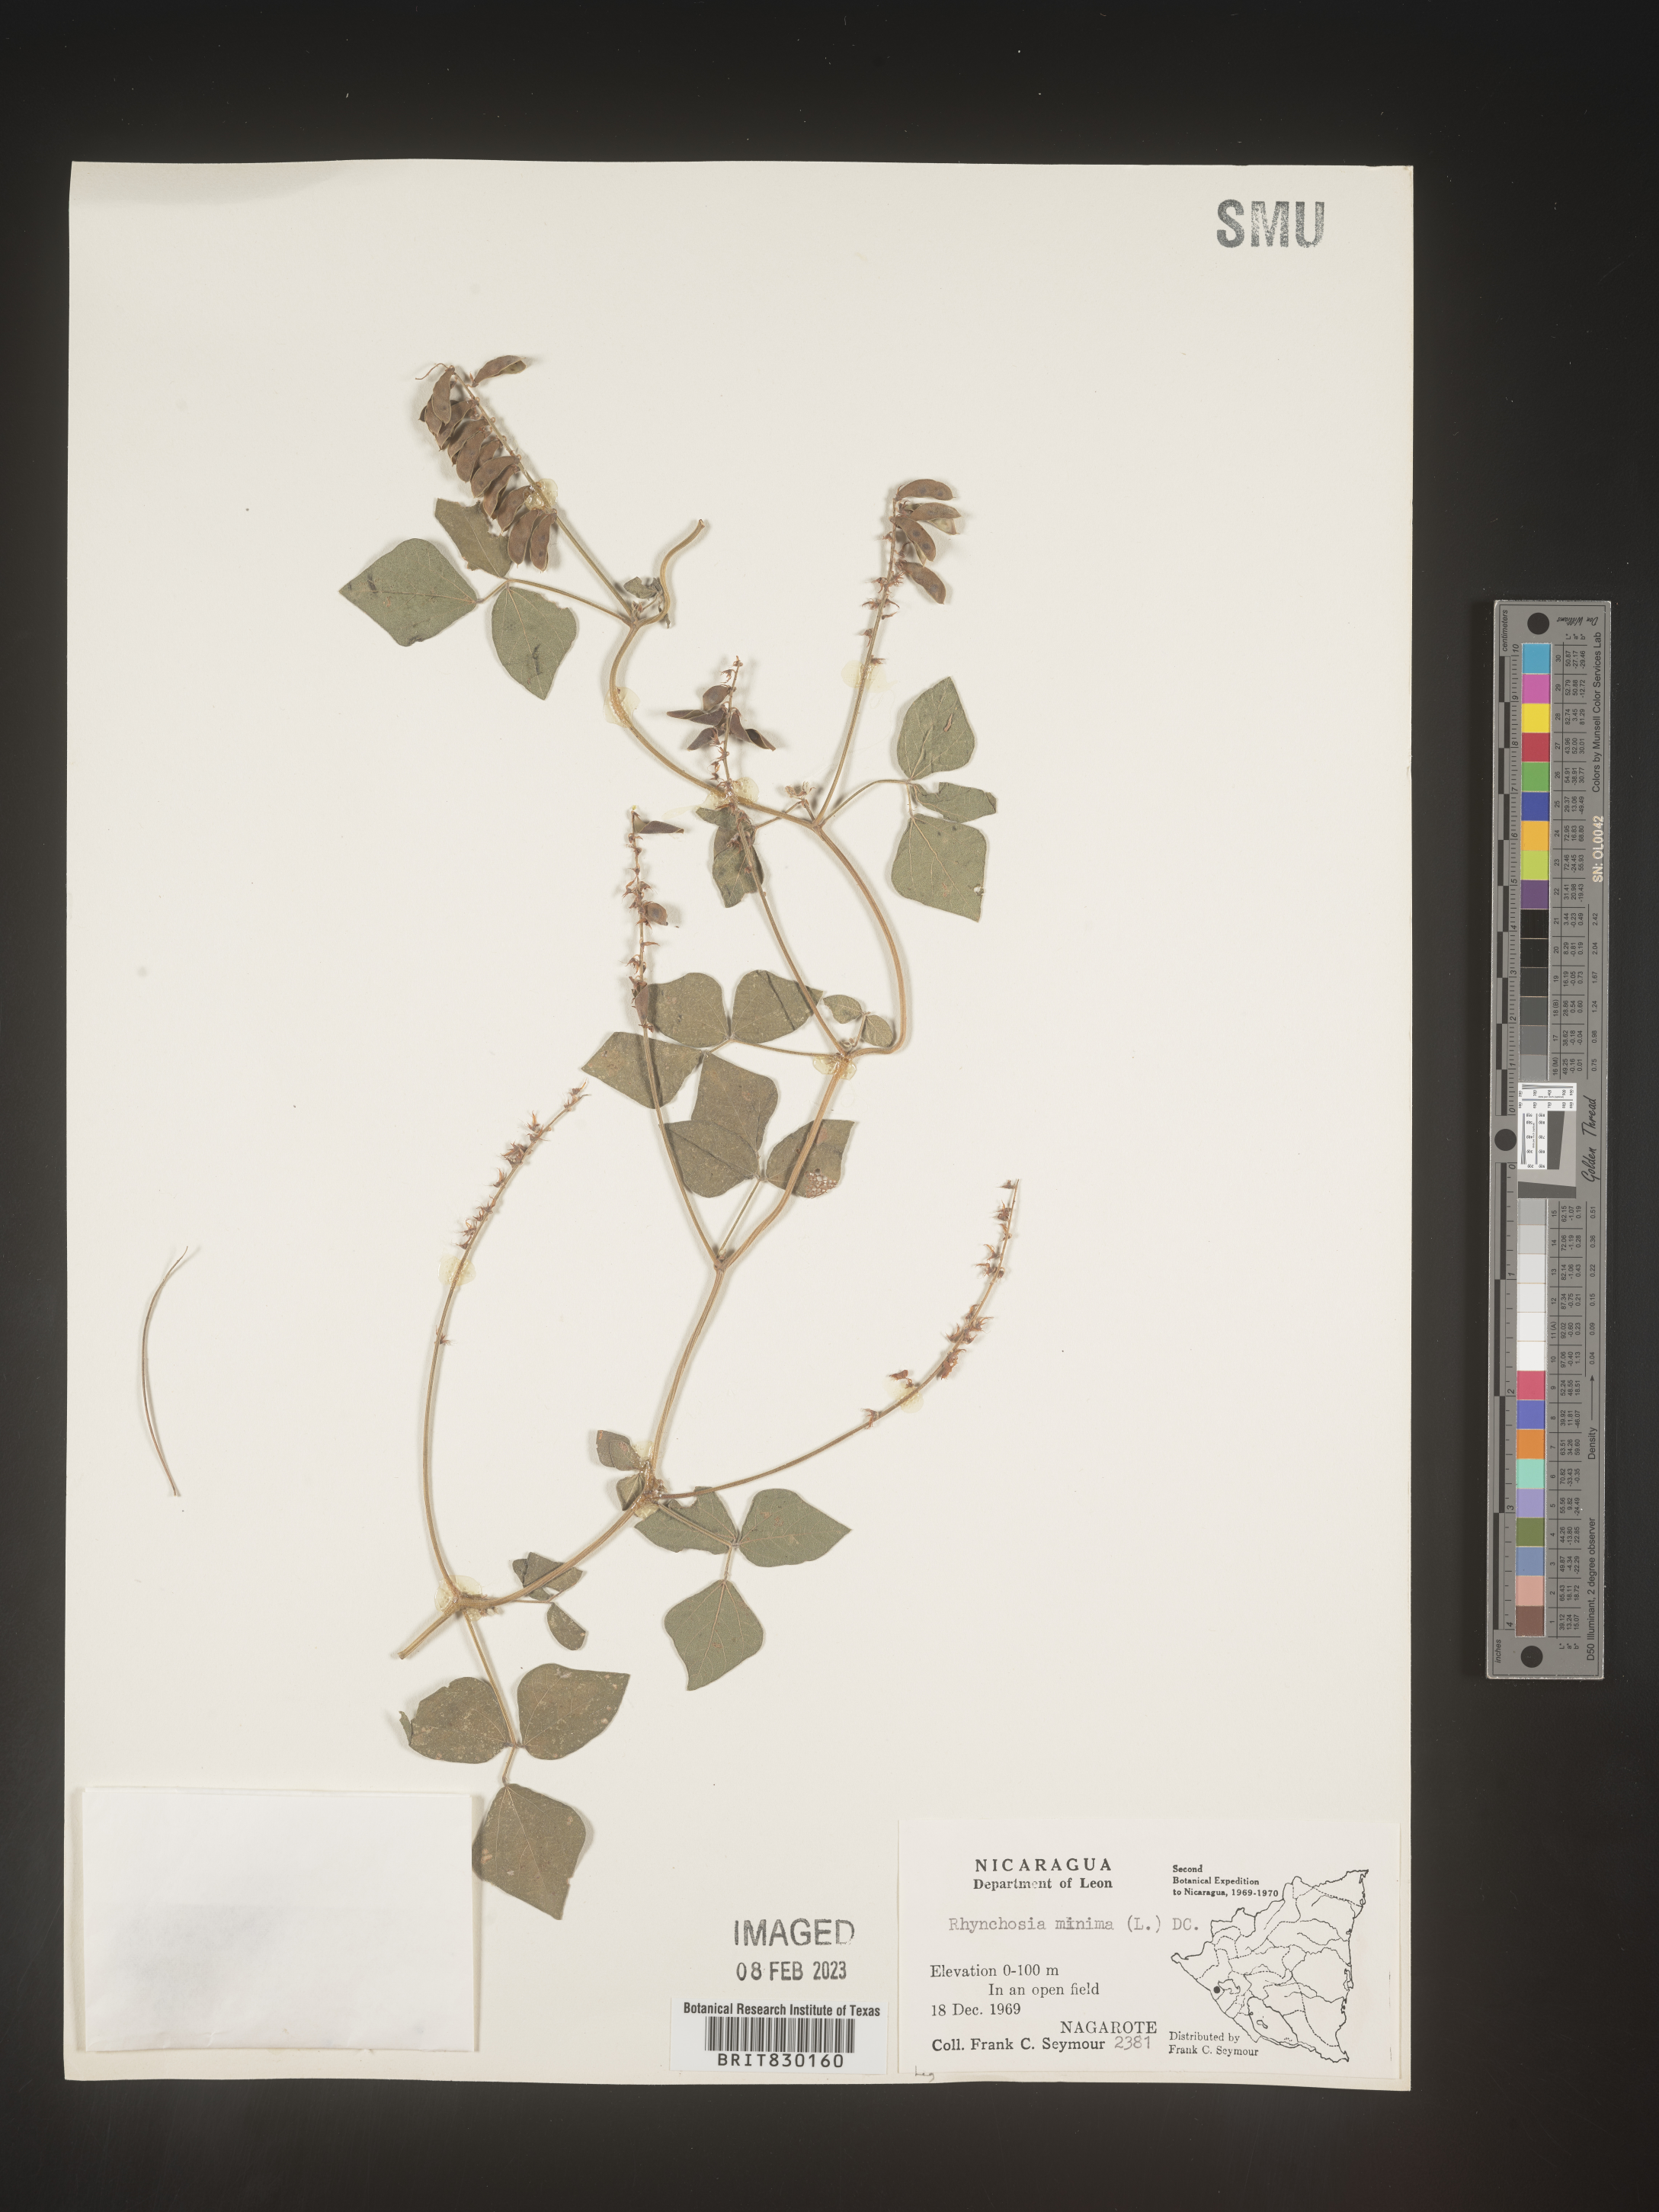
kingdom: Plantae
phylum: Tracheophyta
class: Magnoliopsida
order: Fabales
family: Fabaceae
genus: Rhynchosia
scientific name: Rhynchosia
